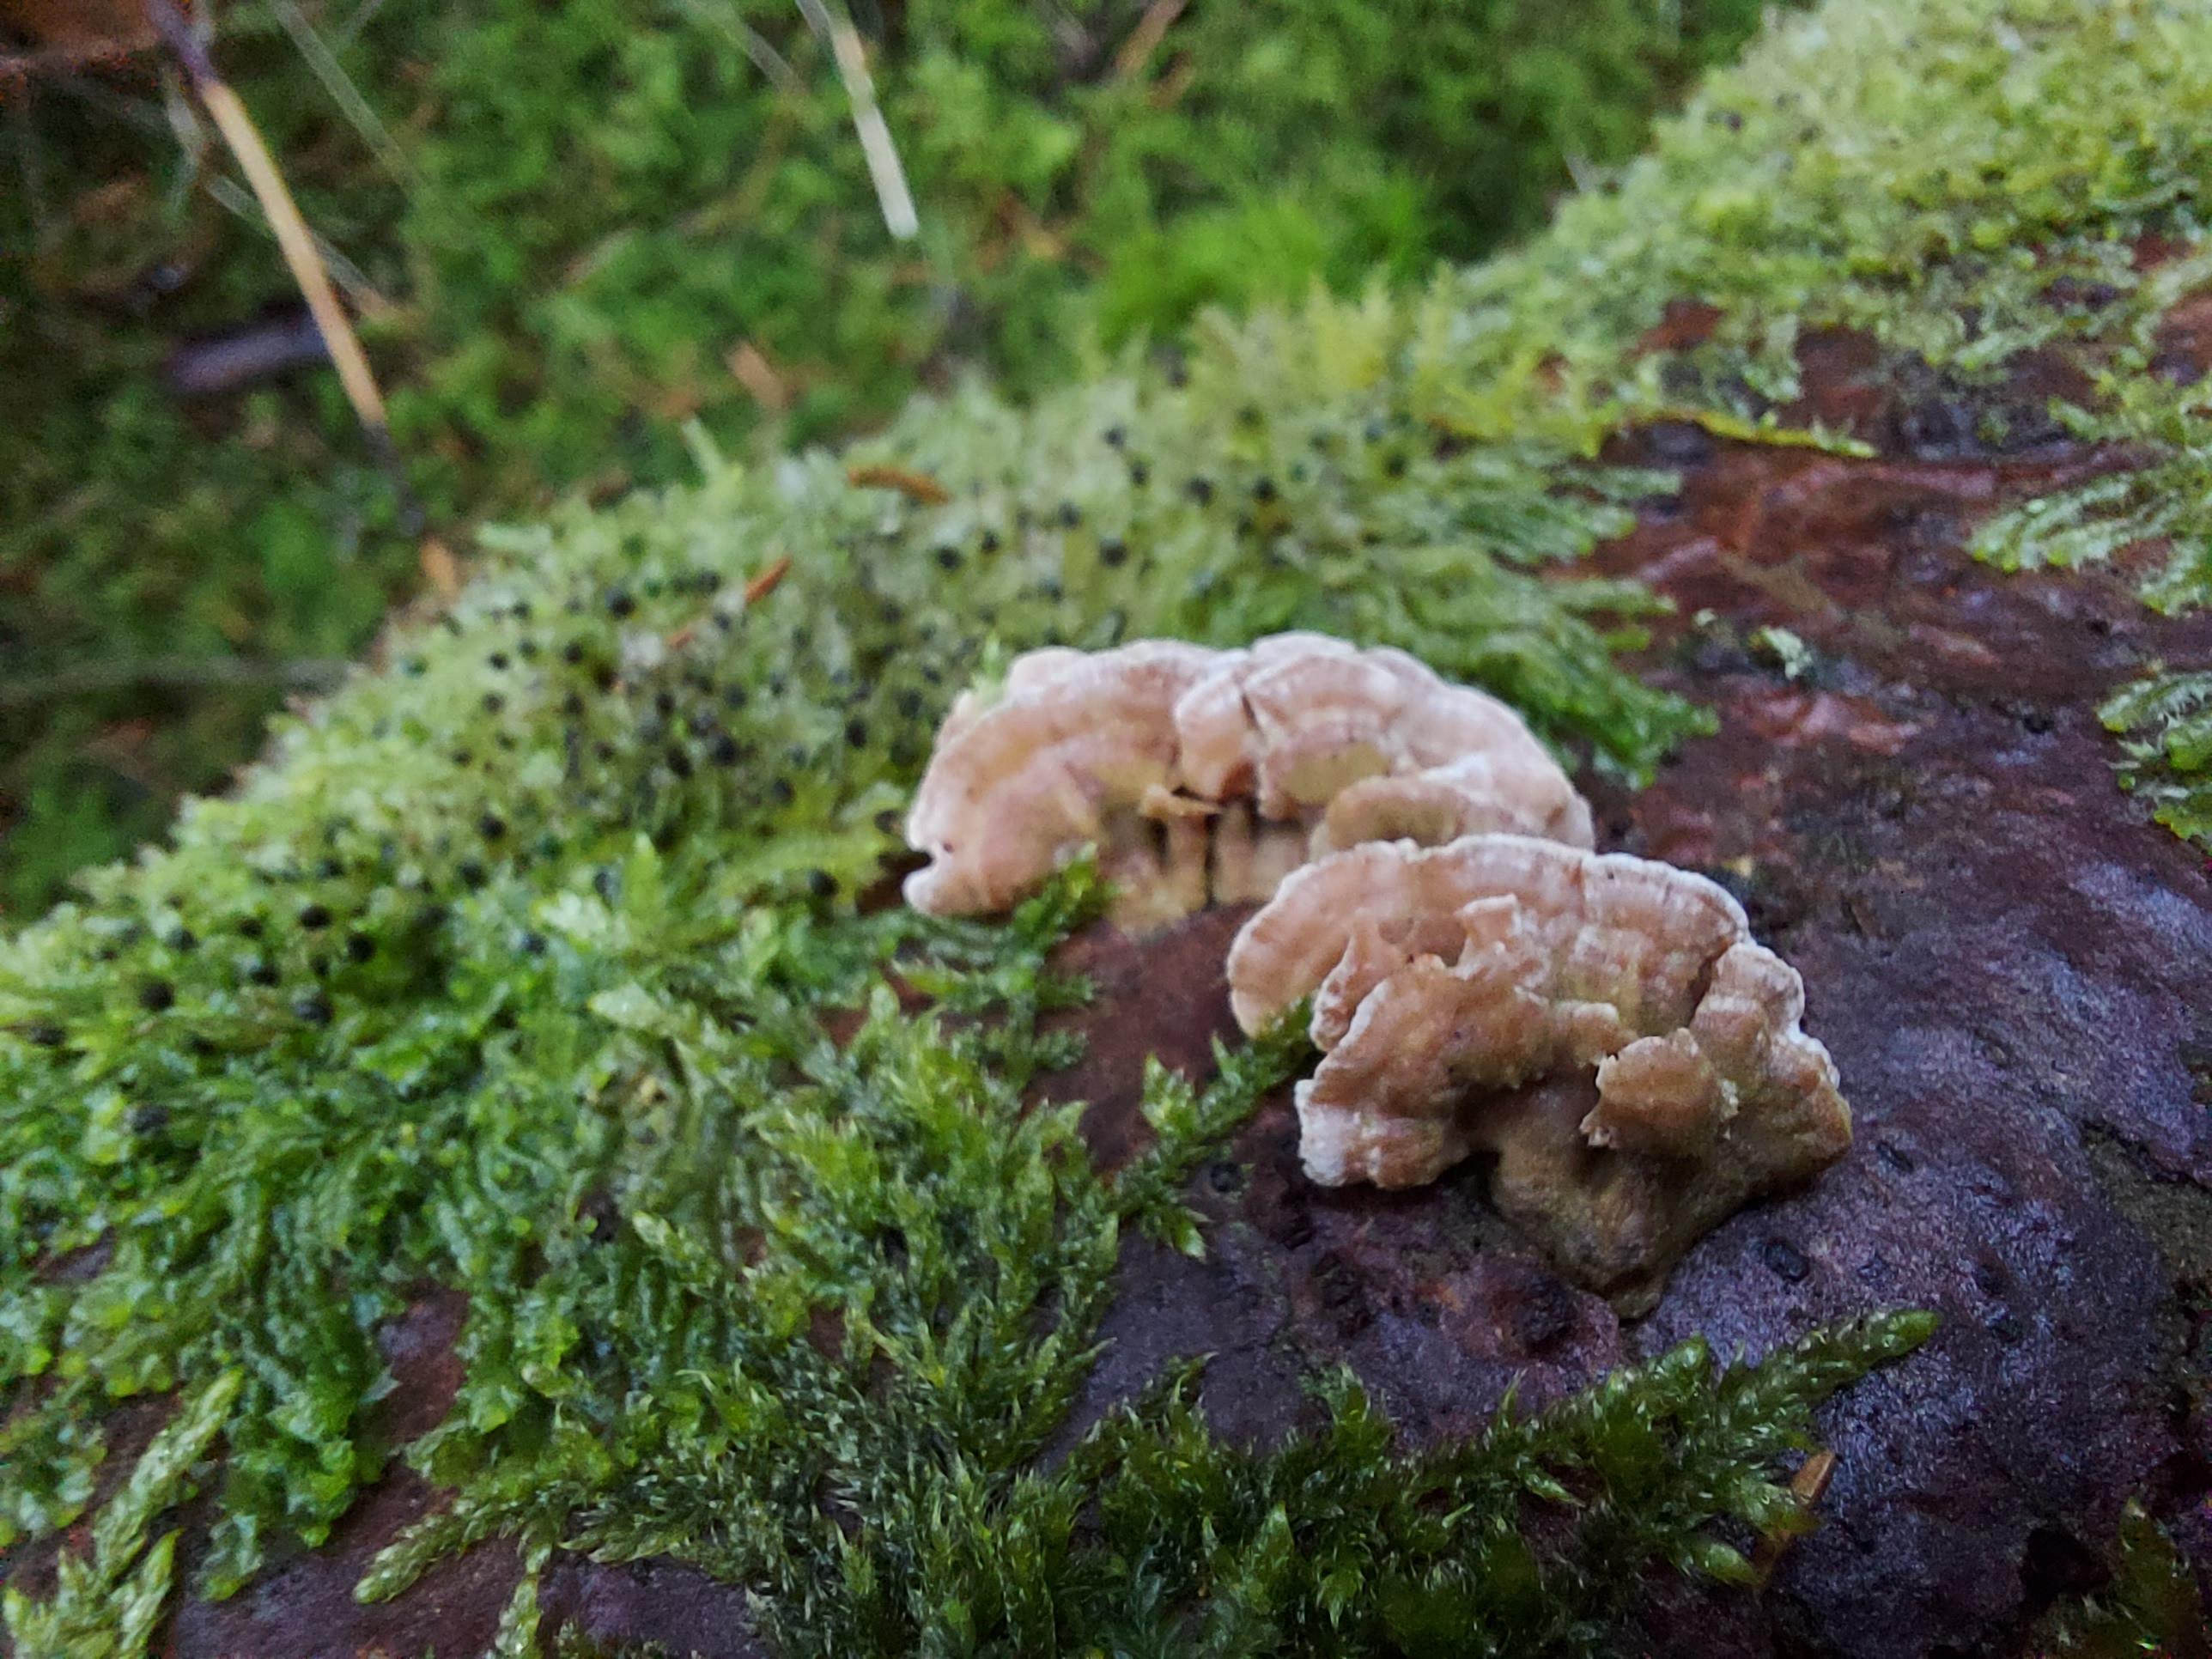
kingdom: Fungi
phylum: Basidiomycota
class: Agaricomycetes
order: Polyporales
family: Incrustoporiaceae
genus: Skeletocutis
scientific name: Skeletocutis carneogrisea
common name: rødgrå krystalporesvamp
